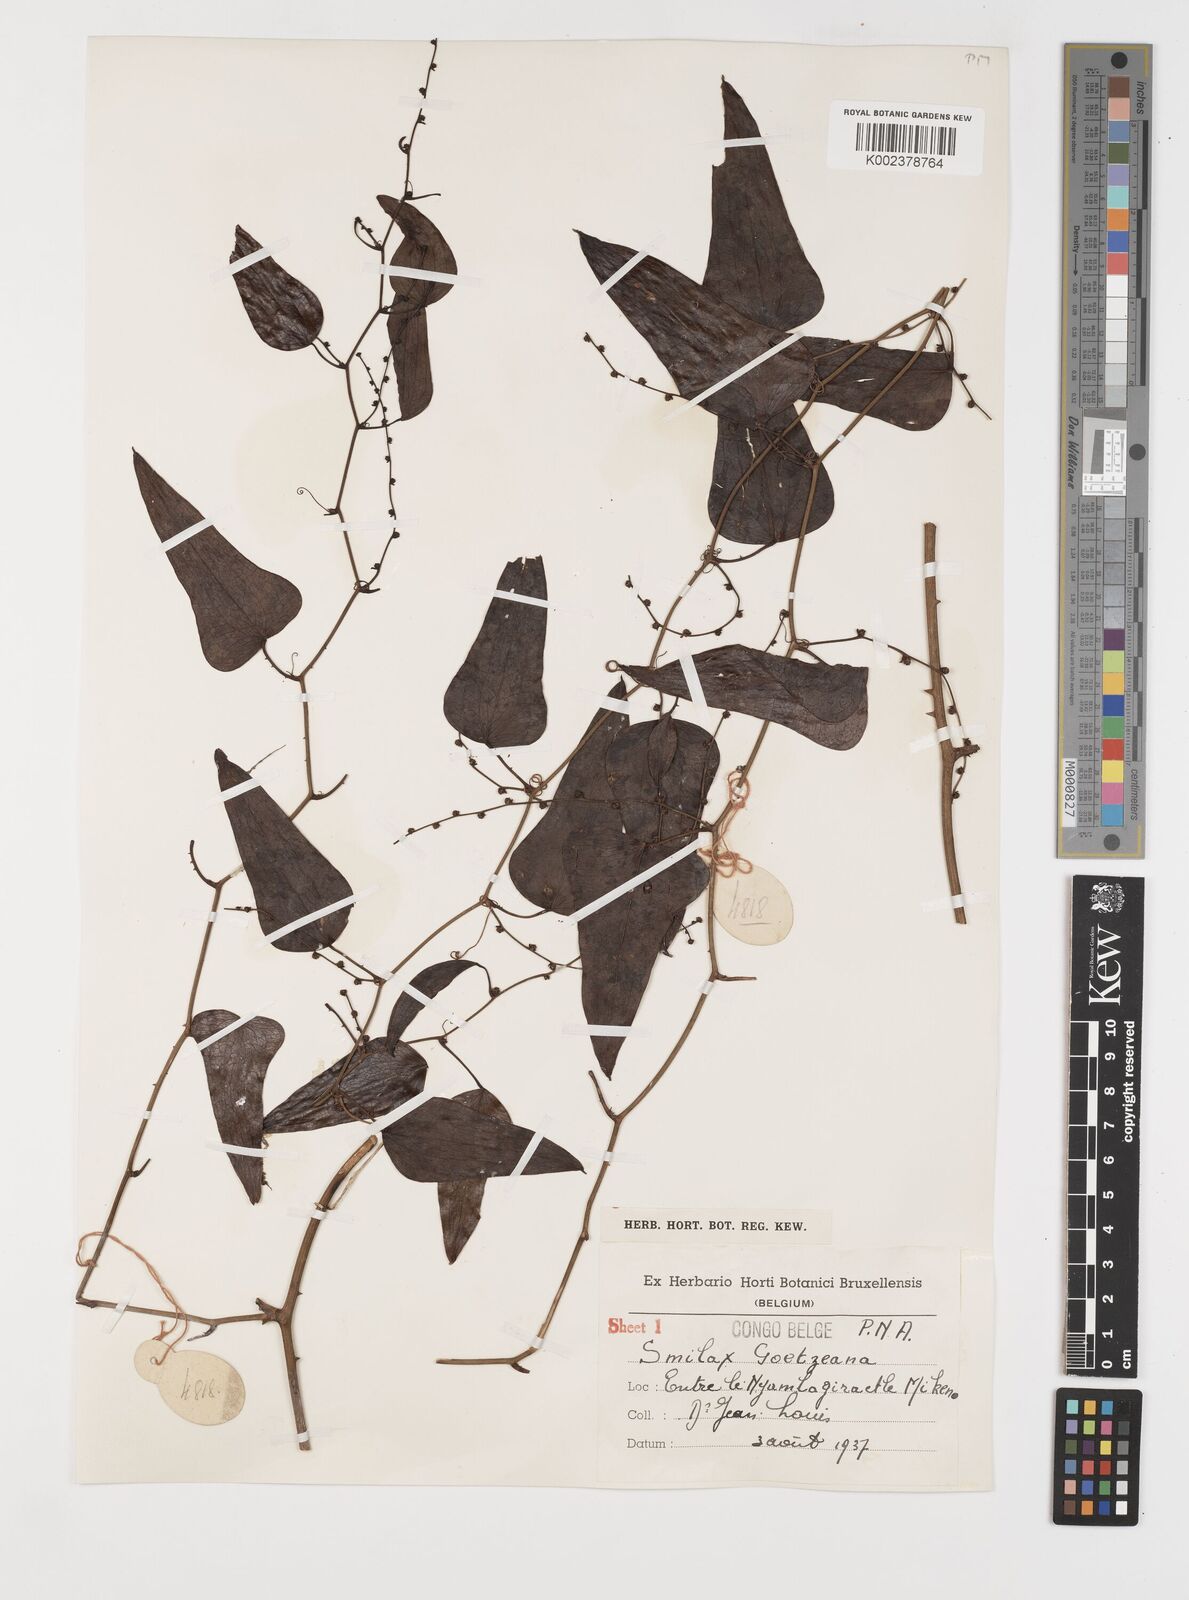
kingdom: Plantae
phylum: Tracheophyta
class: Liliopsida
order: Liliales
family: Smilacaceae
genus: Smilax
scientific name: Smilax aspera
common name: Common smilax
